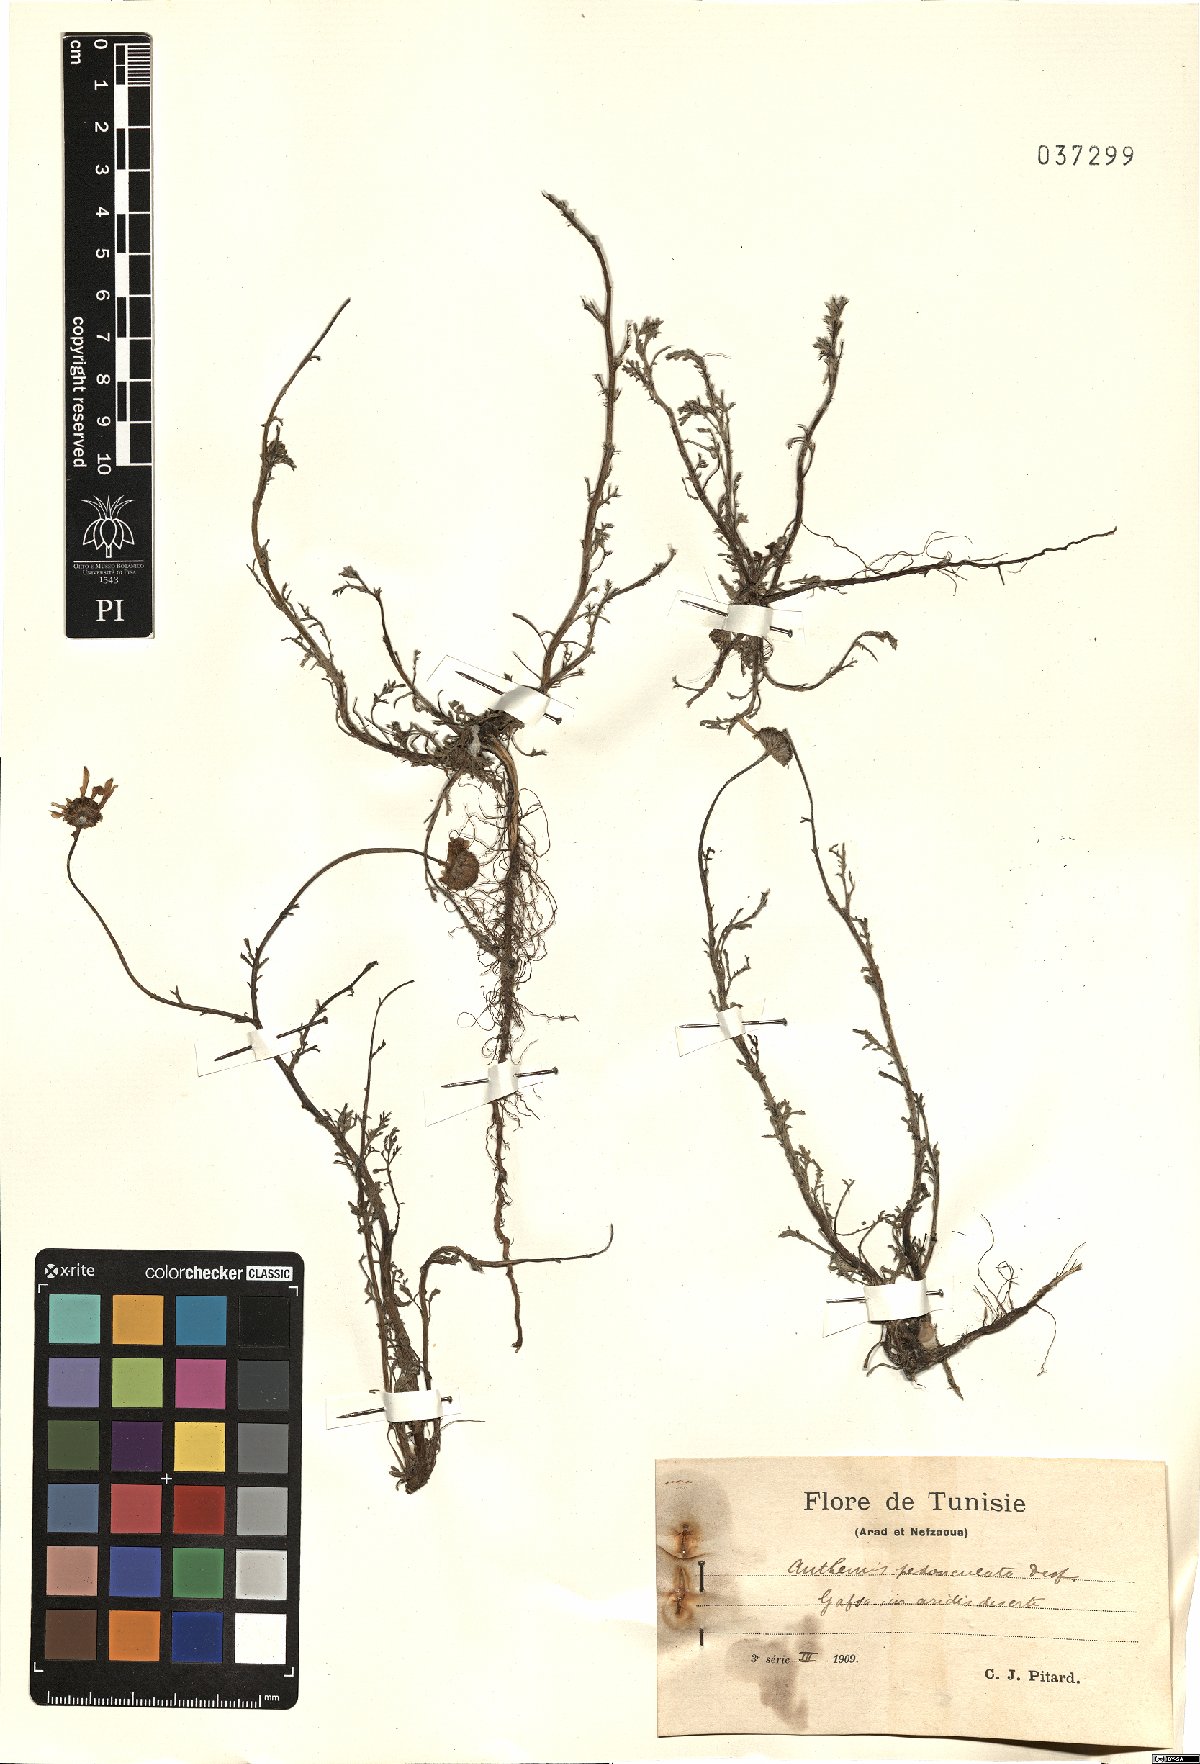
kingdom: Plantae
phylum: Tracheophyta
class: Magnoliopsida
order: Asterales
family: Asteraceae
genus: Anthemis
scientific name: Anthemis pedunculata
